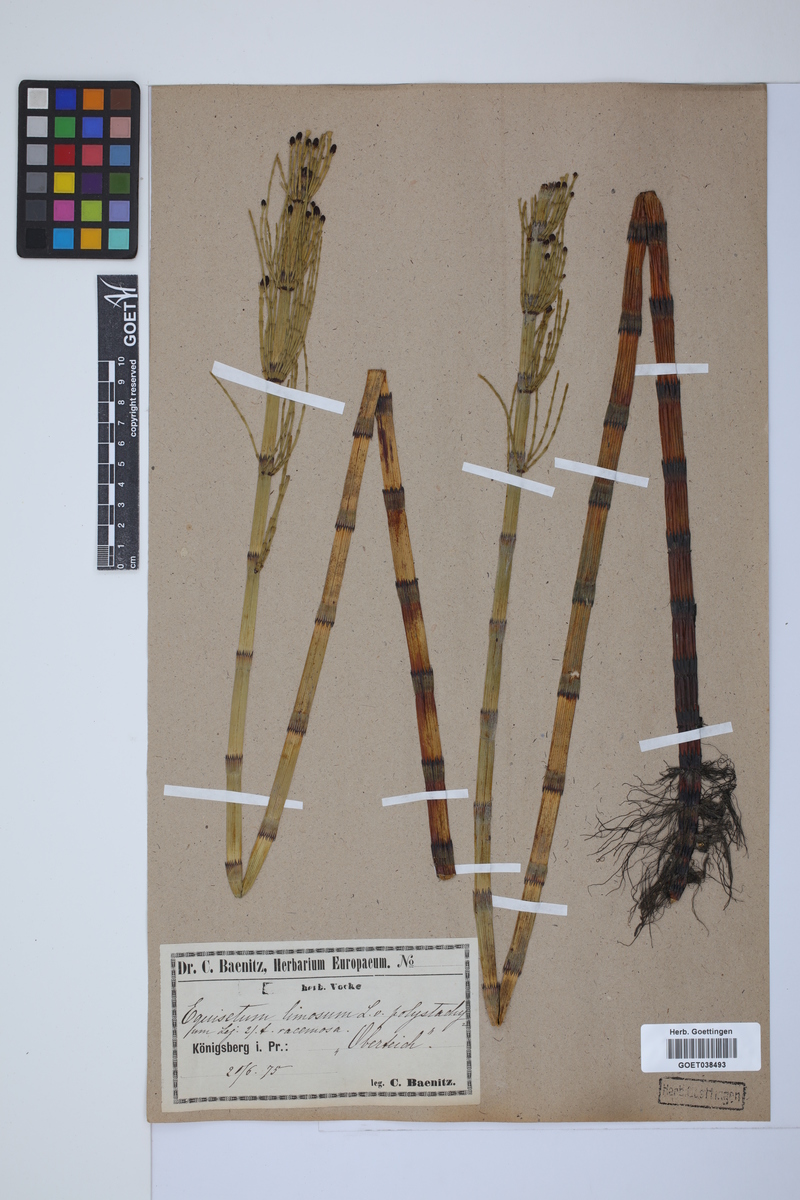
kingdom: Plantae
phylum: Tracheophyta
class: Polypodiopsida
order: Equisetales
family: Equisetaceae
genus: Equisetum
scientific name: Equisetum fluviatile
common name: Water horsetail
